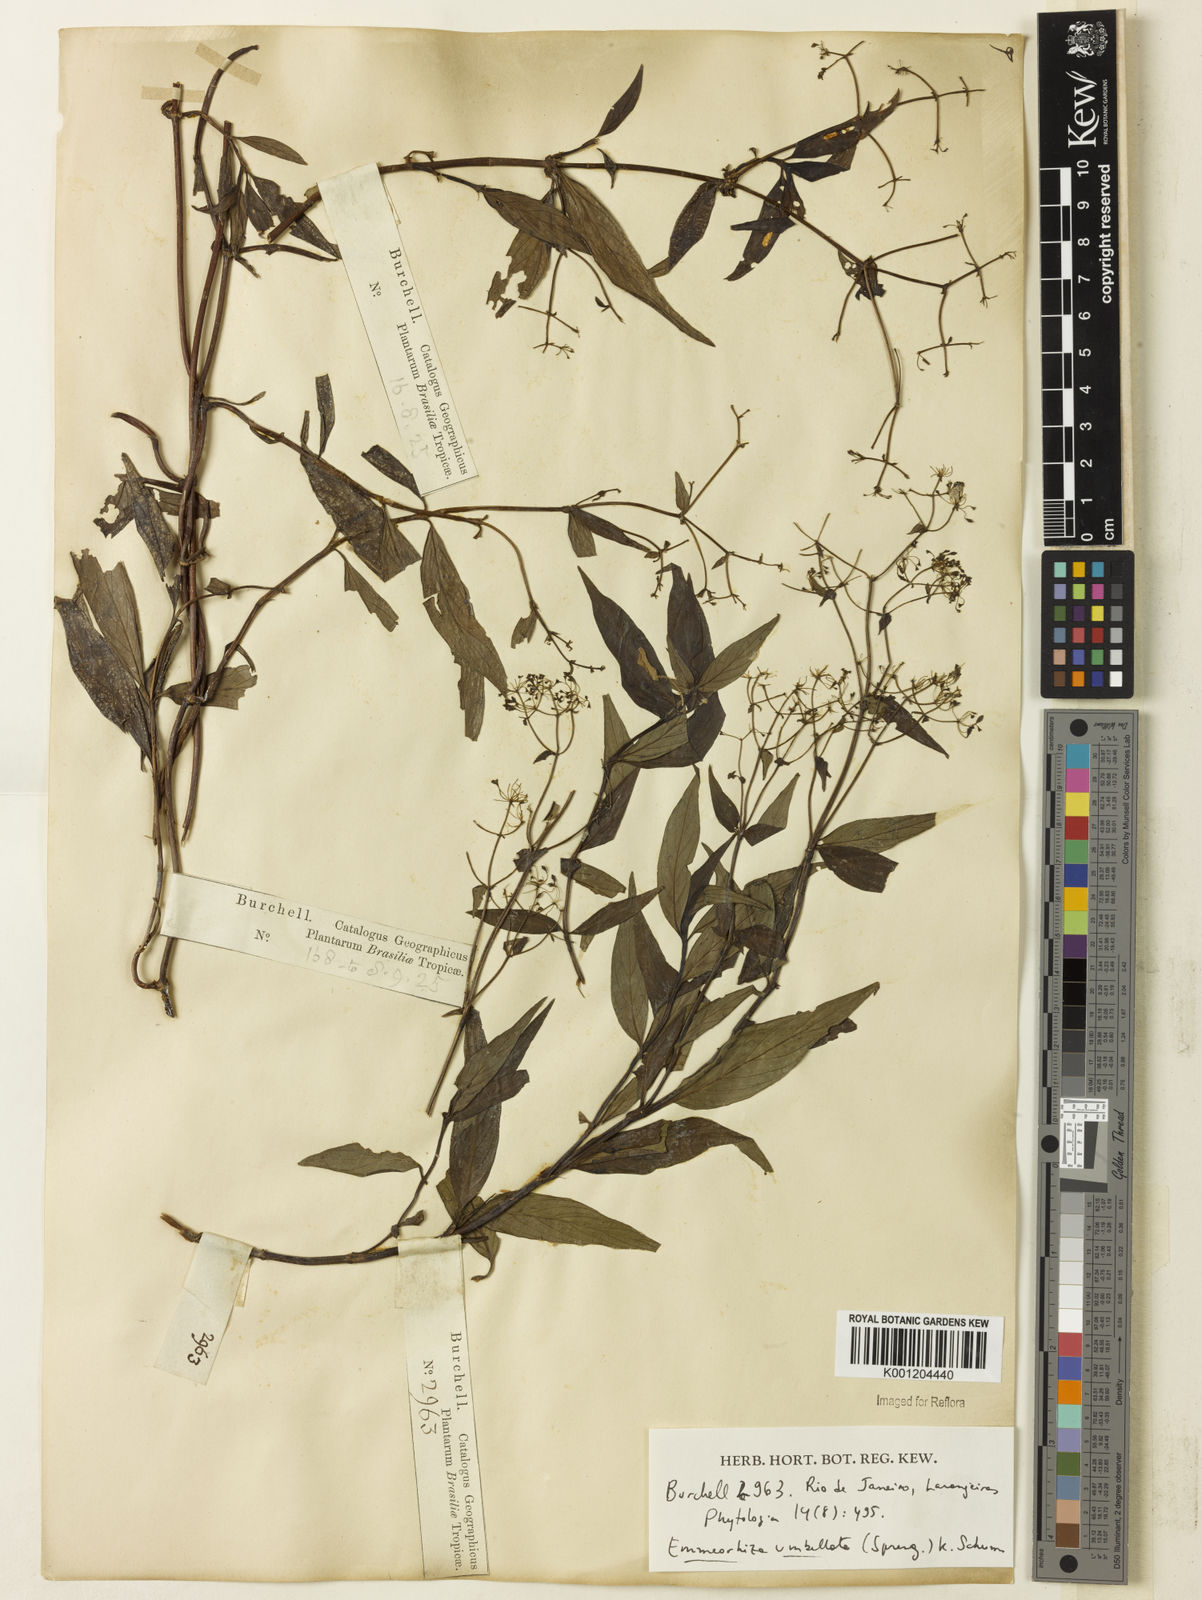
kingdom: Plantae
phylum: Tracheophyta
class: Magnoliopsida
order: Gentianales
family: Rubiaceae
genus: Emmeorhiza
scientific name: Emmeorhiza umbellata
